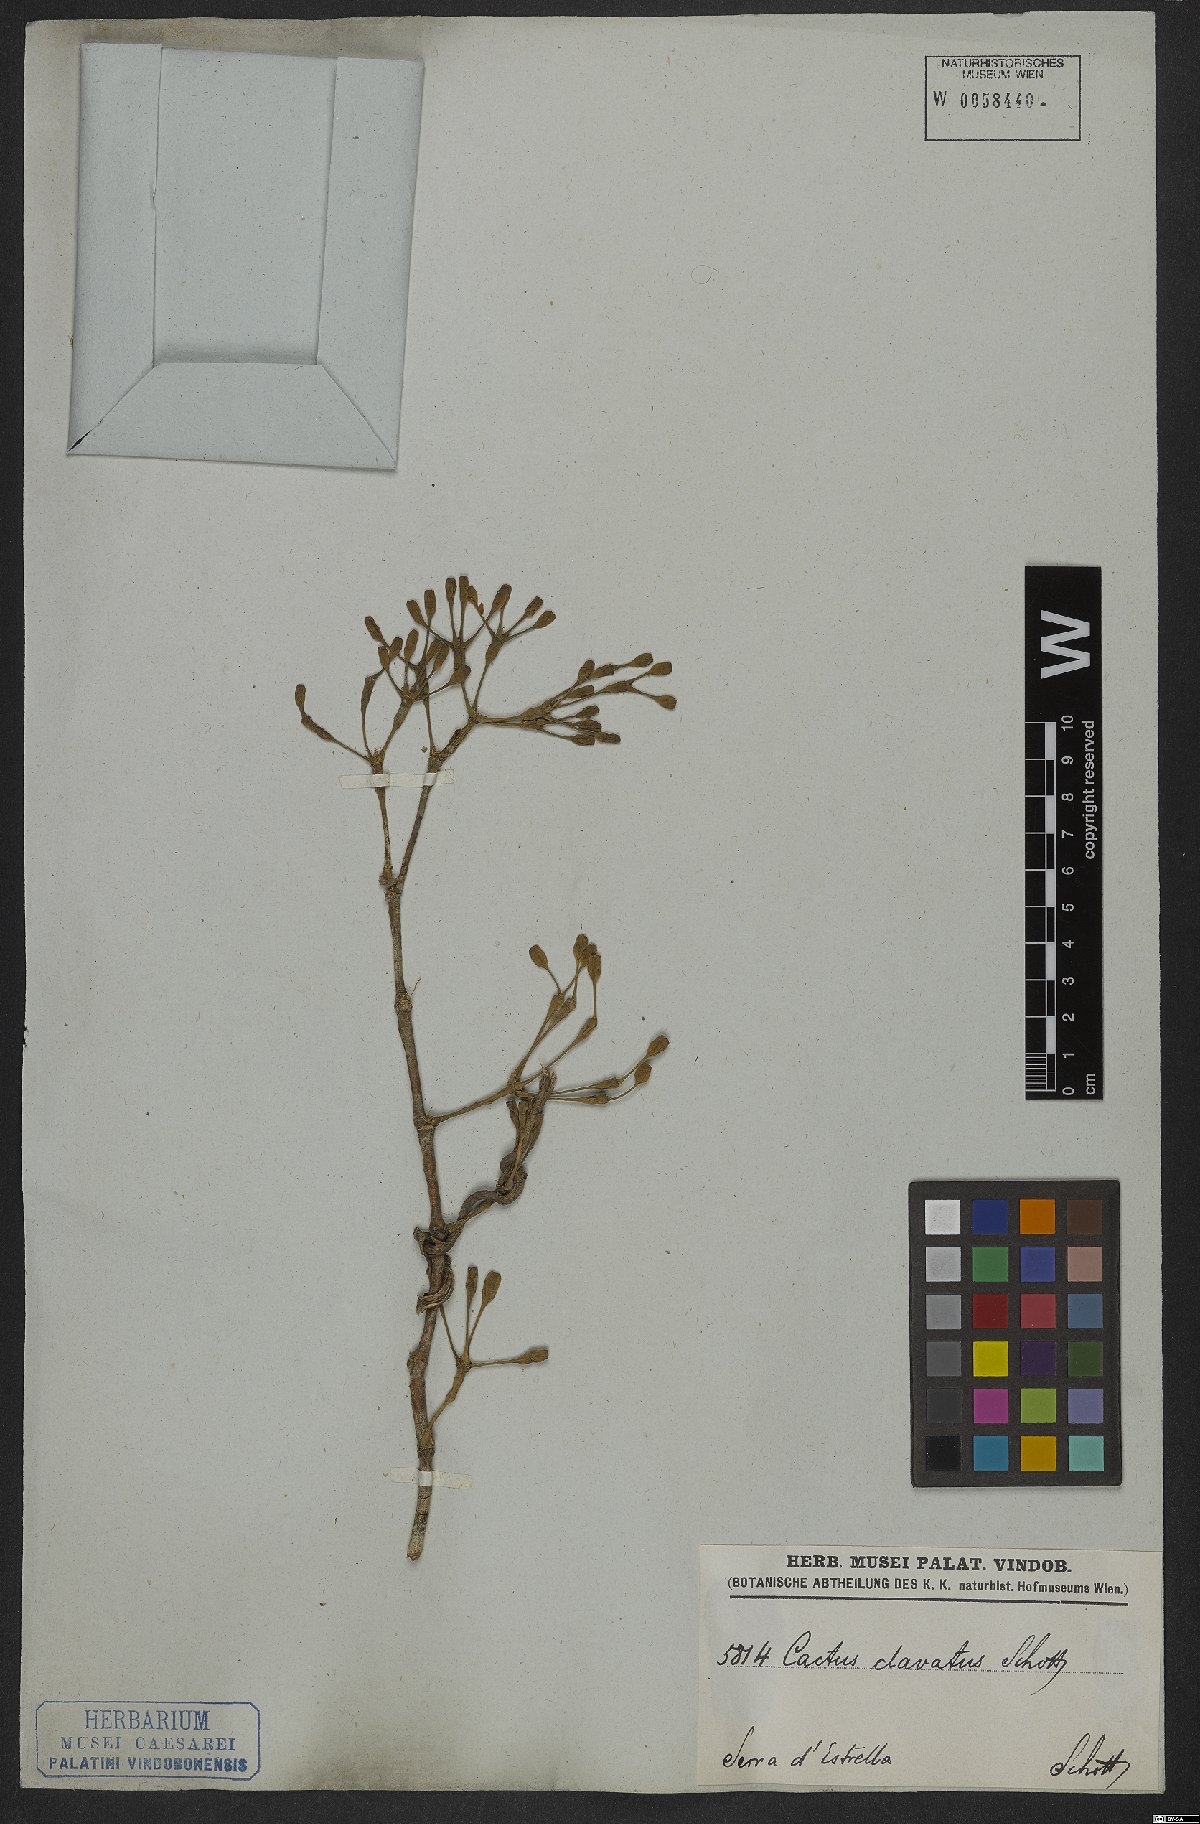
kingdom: Plantae
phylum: Tracheophyta
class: Magnoliopsida
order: Caryophyllales
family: Cactaceae
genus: Hatiora
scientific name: Hatiora salicornioides
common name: Dancing-bones
